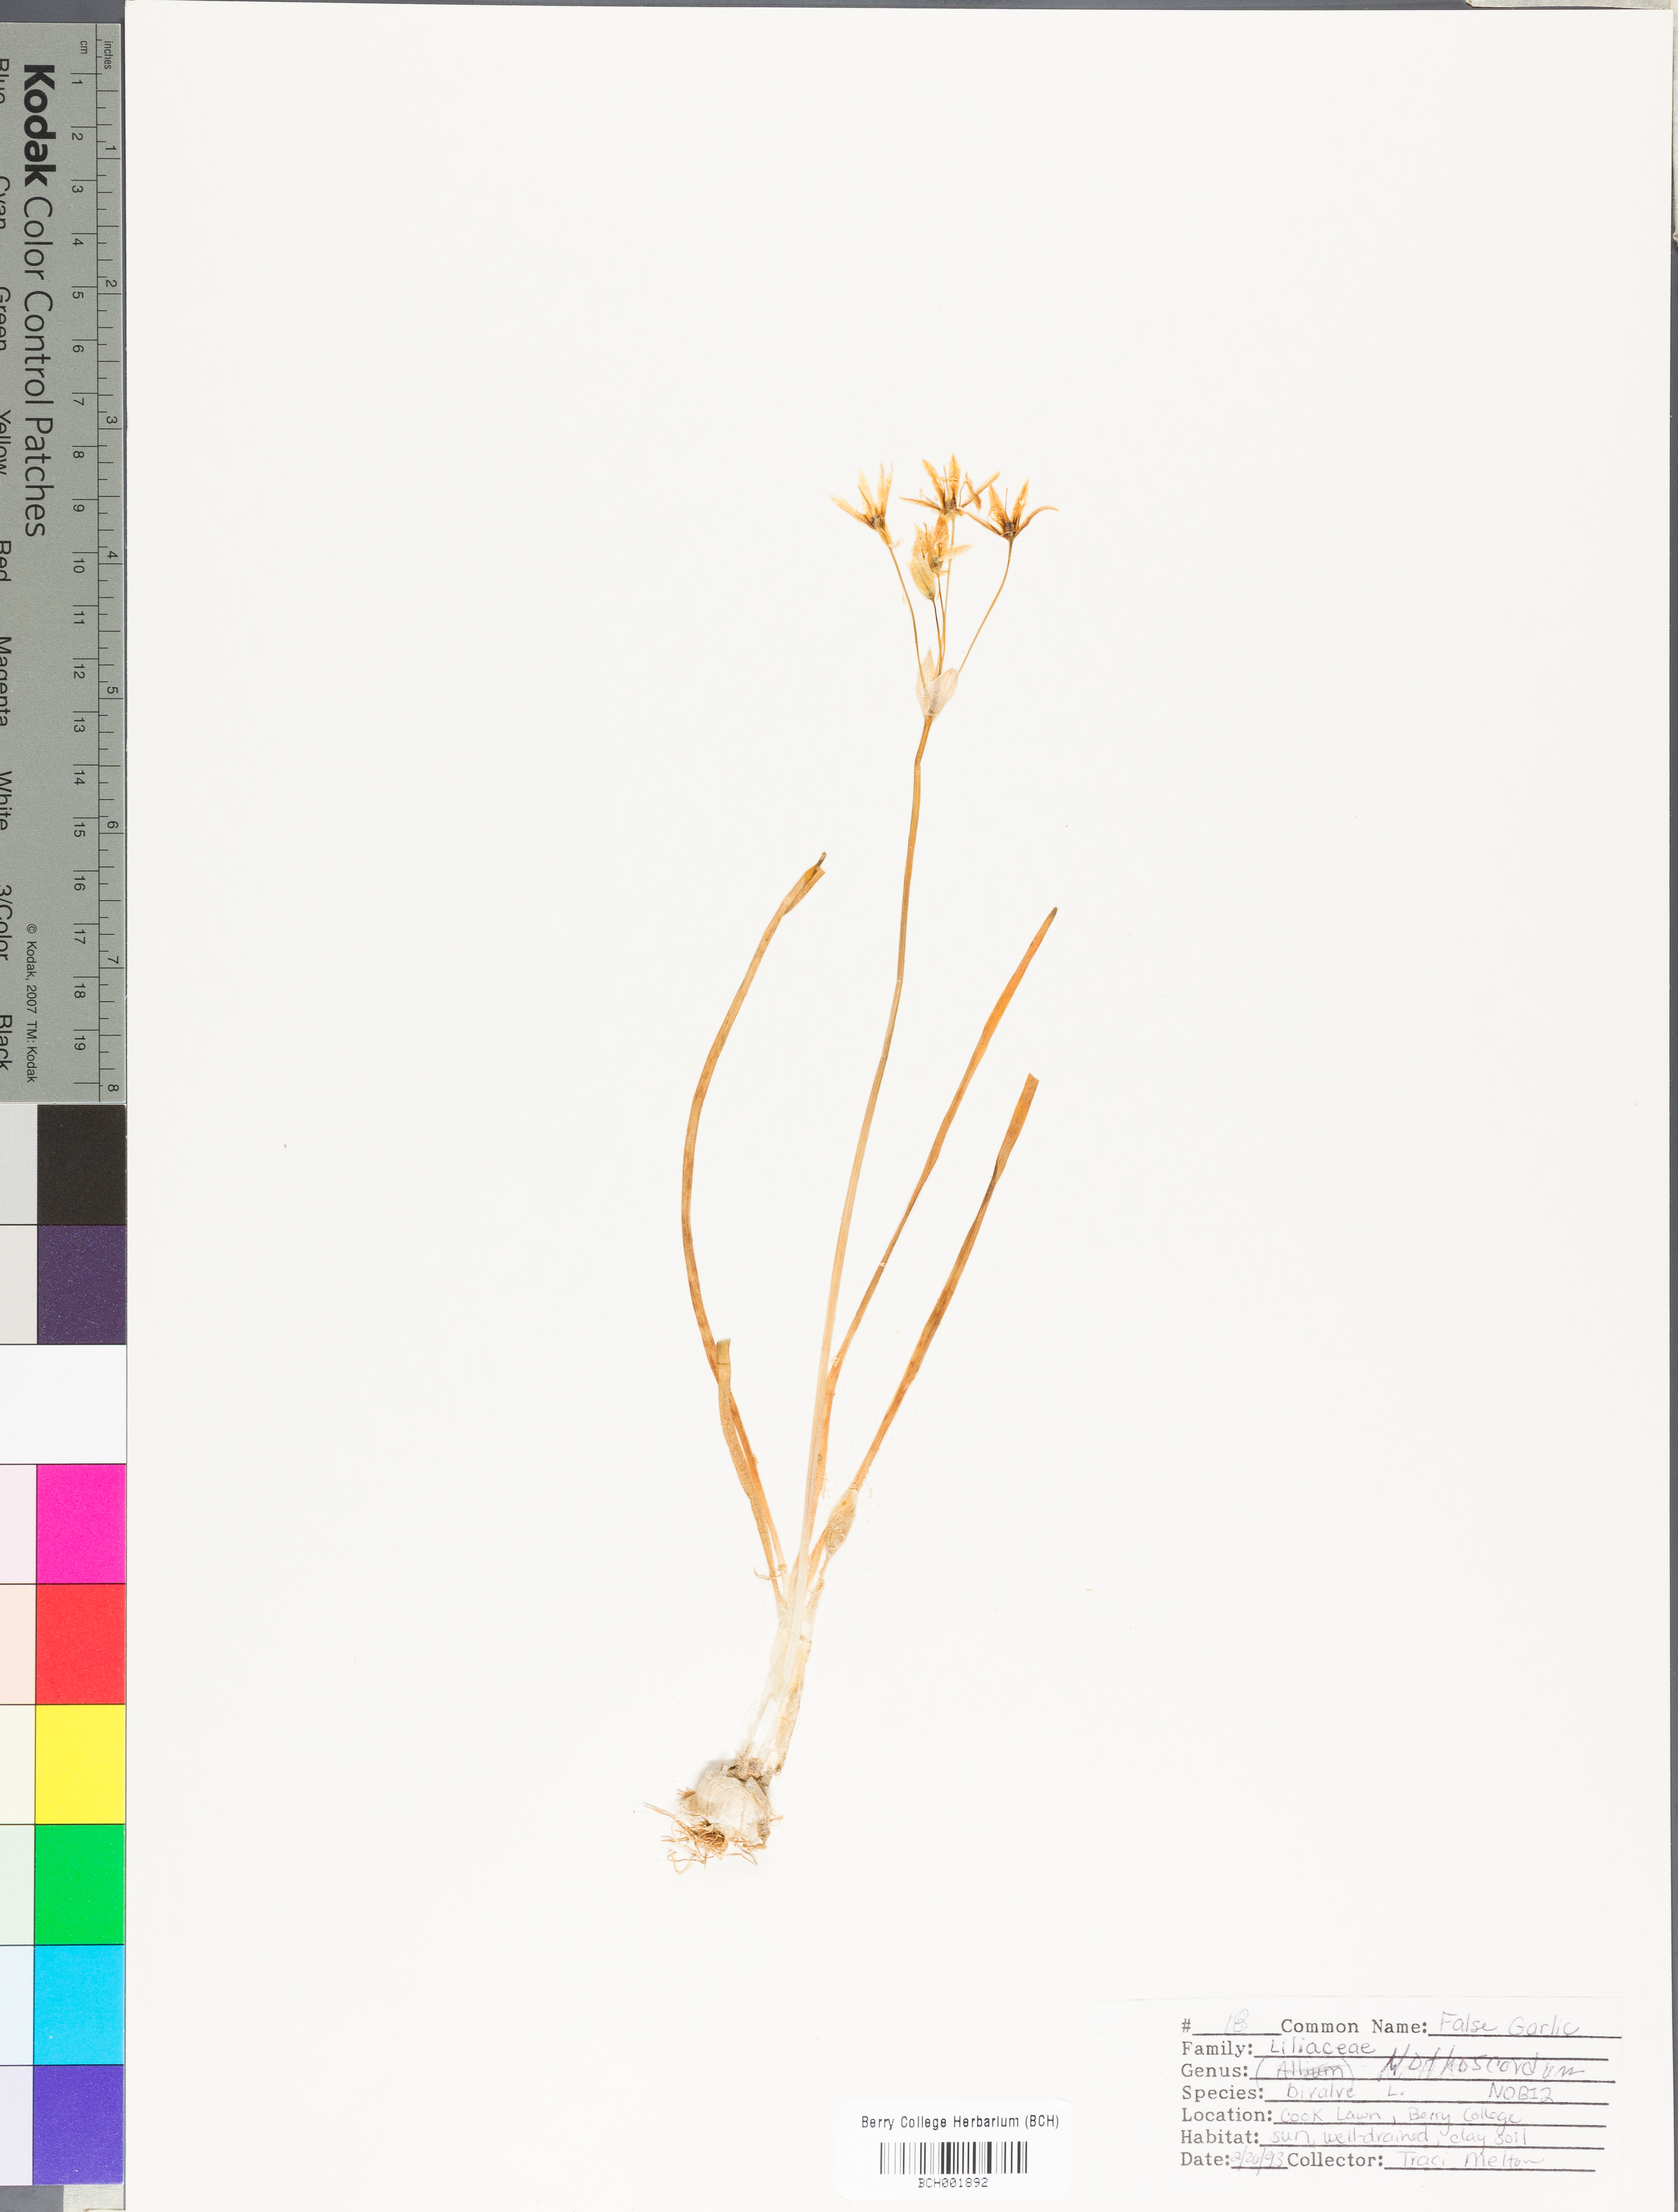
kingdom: Plantae
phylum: Tracheophyta
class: Liliopsida
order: Asparagales
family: Amaryllidaceae
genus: Nothoscordum
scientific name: Nothoscordum bivalve
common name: Crow-poison
